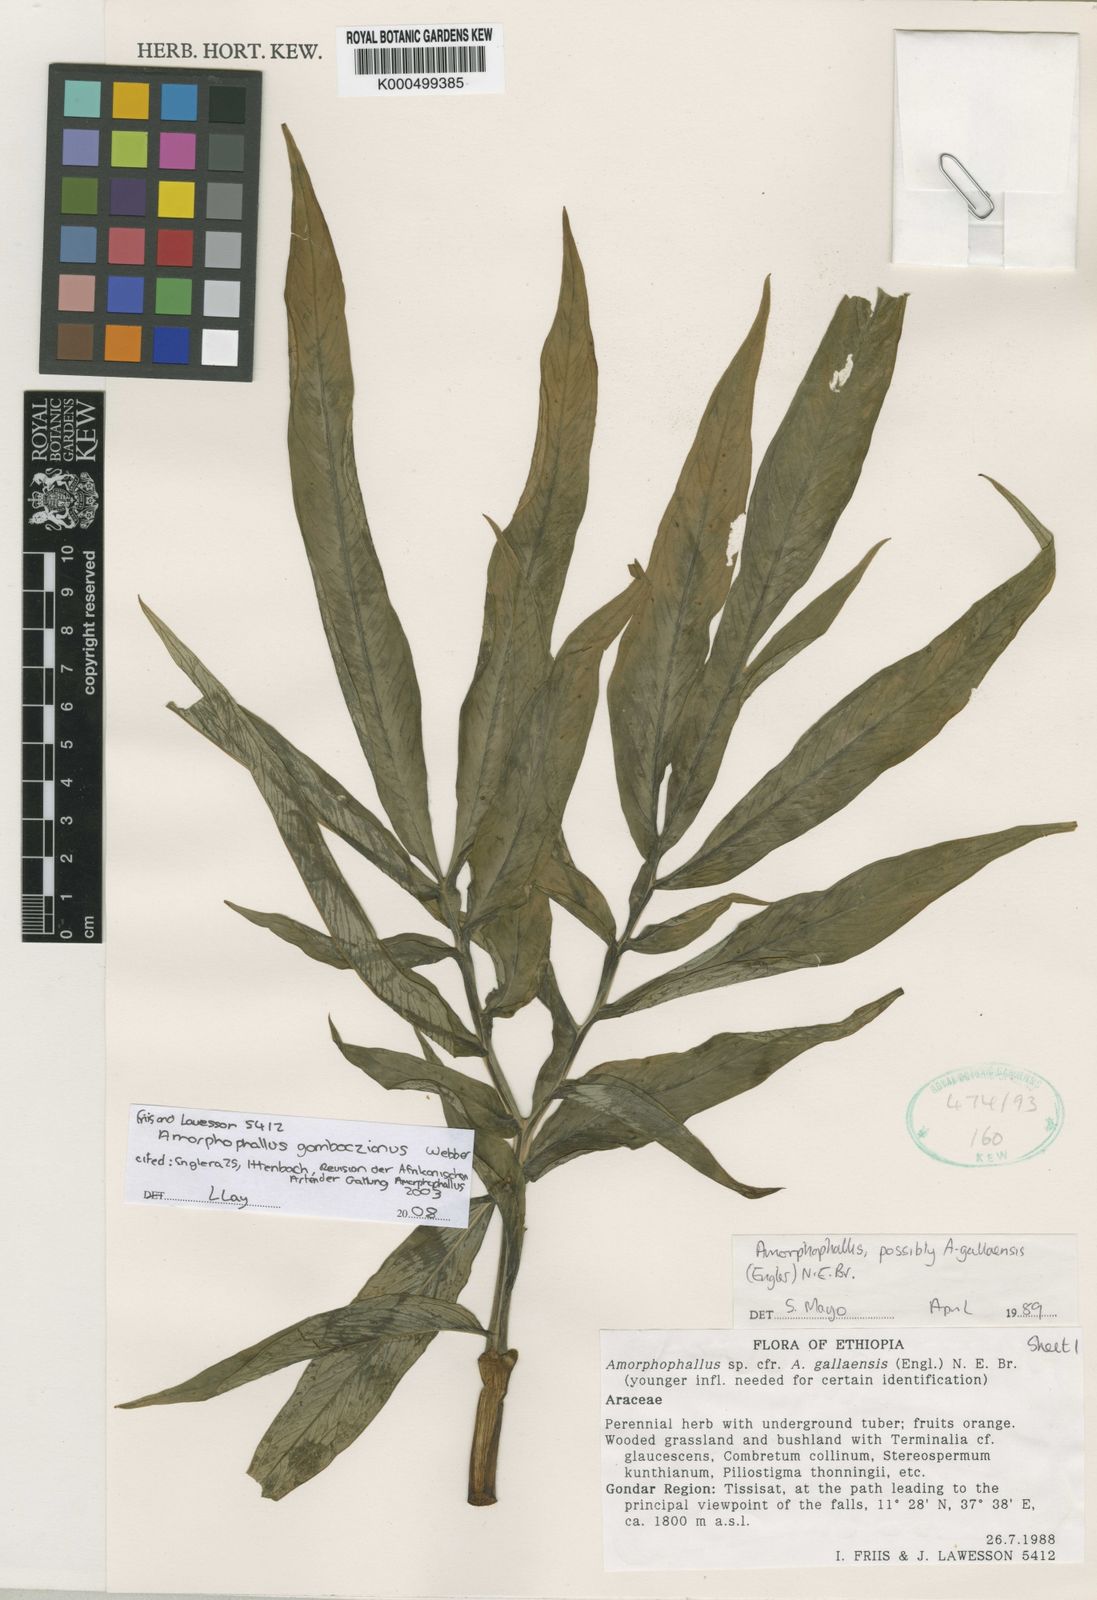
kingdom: Plantae
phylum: Tracheophyta
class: Liliopsida
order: Alismatales
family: Araceae
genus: Amorphophallus
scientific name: Amorphophallus
